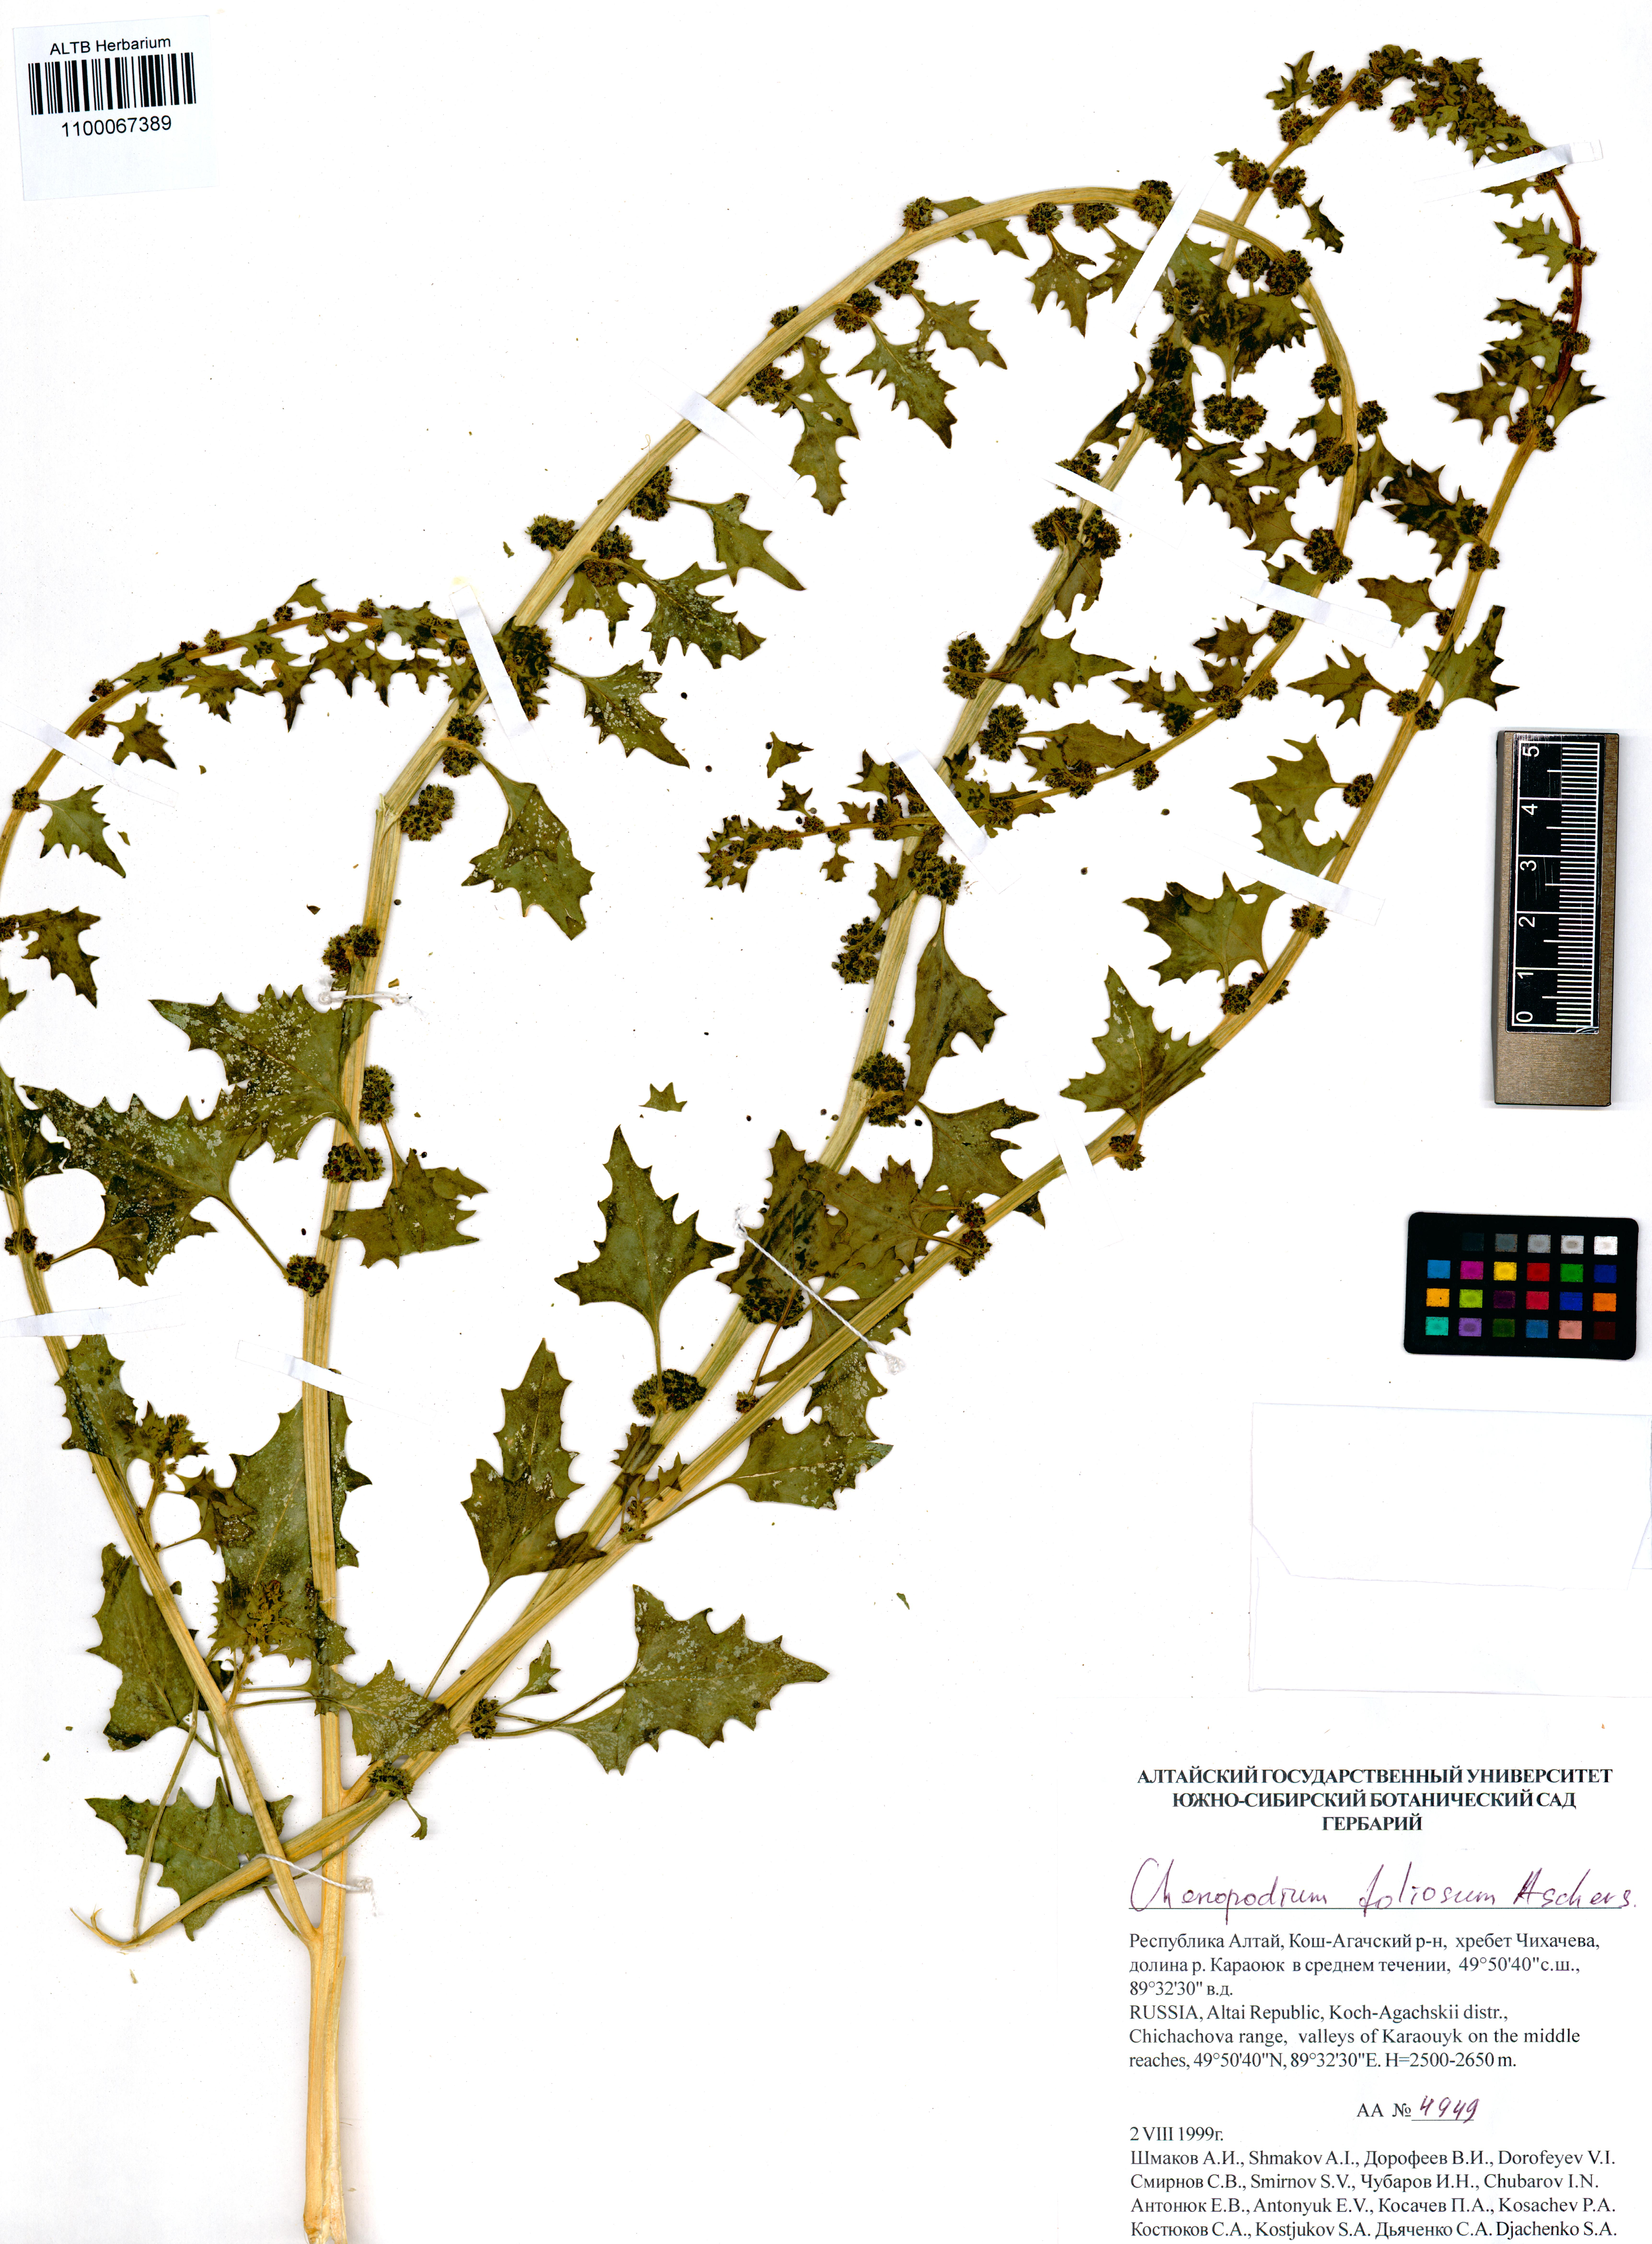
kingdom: Plantae
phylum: Tracheophyta
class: Magnoliopsida
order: Caryophyllales
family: Amaranthaceae
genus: Blitum
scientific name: Blitum virgatum
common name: Strawberry goosefoot
